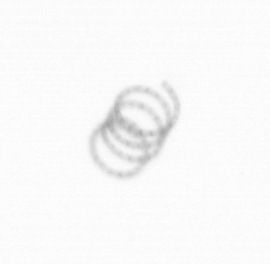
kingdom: Chromista
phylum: Ochrophyta
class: Bacillariophyceae
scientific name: Bacillariophyceae
